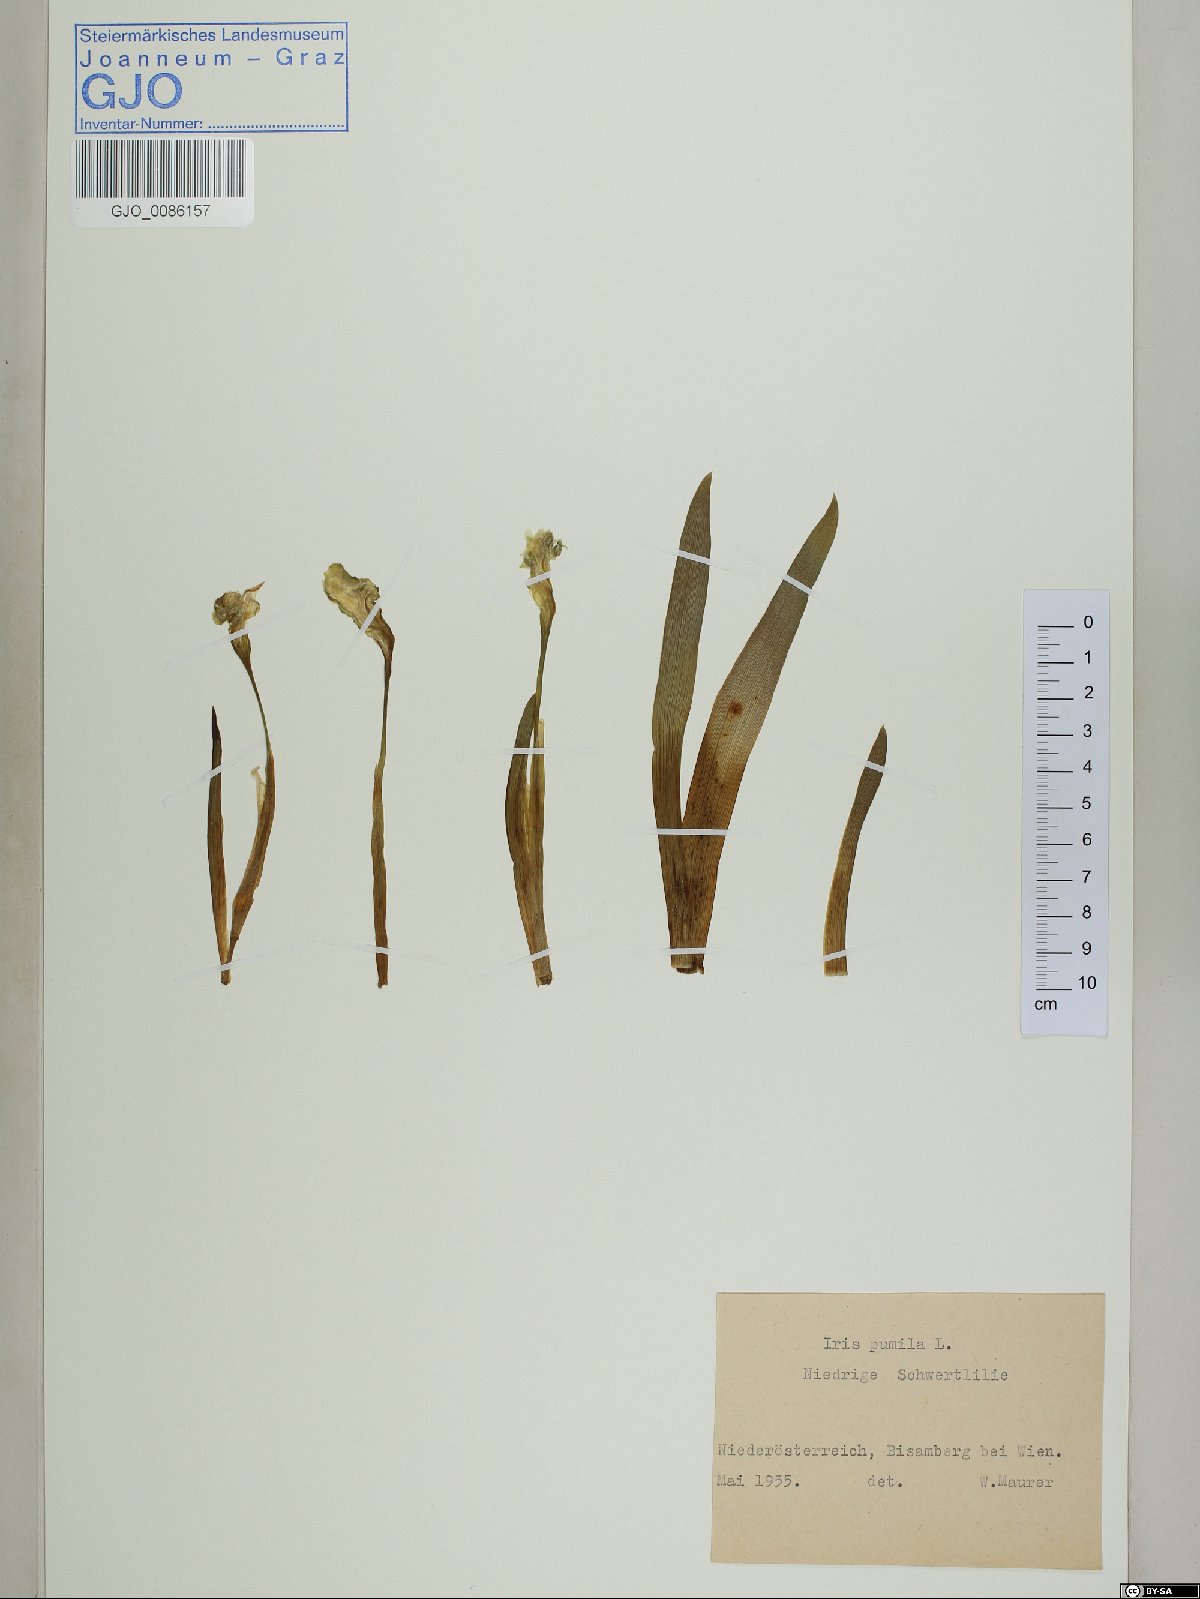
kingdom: Plantae
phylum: Tracheophyta
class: Liliopsida
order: Asparagales
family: Iridaceae
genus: Iris
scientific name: Iris pumila
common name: Dwarf iris
